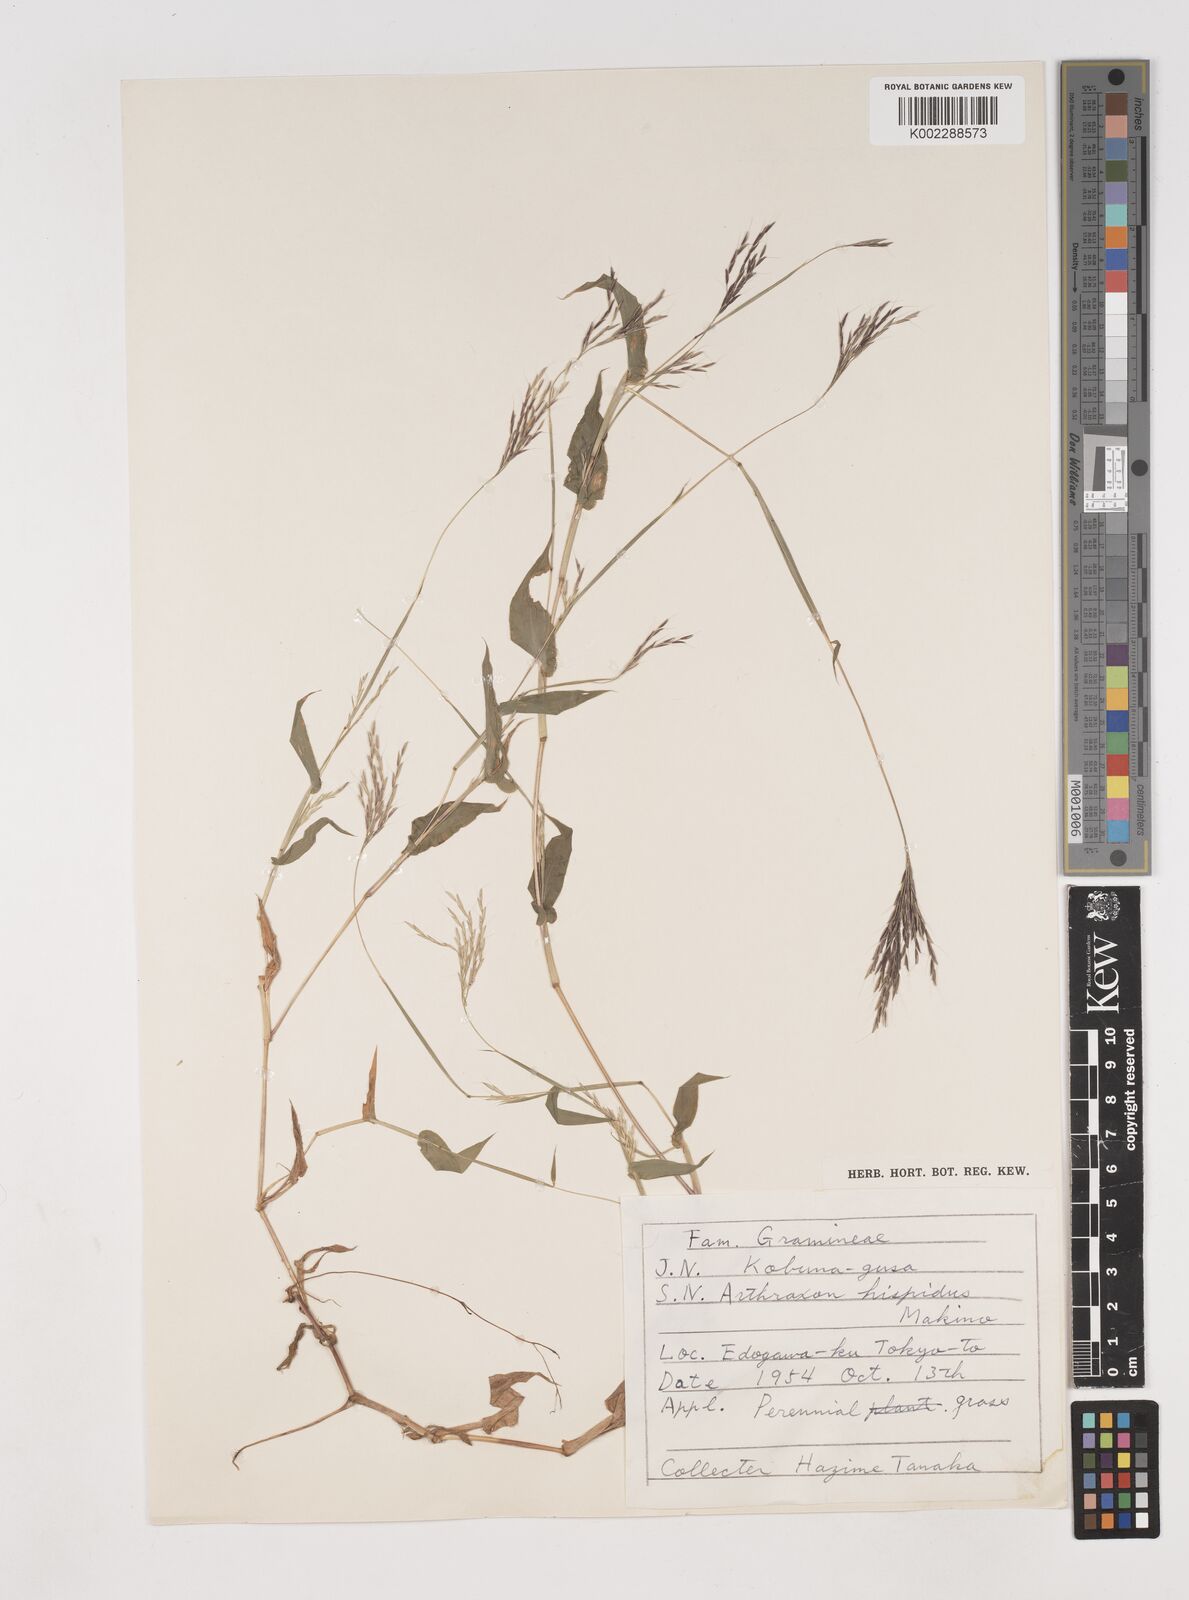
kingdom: Plantae
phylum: Tracheophyta
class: Liliopsida
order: Poales
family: Poaceae
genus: Arthraxon
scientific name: Arthraxon hispidus
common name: Small carpgrass
